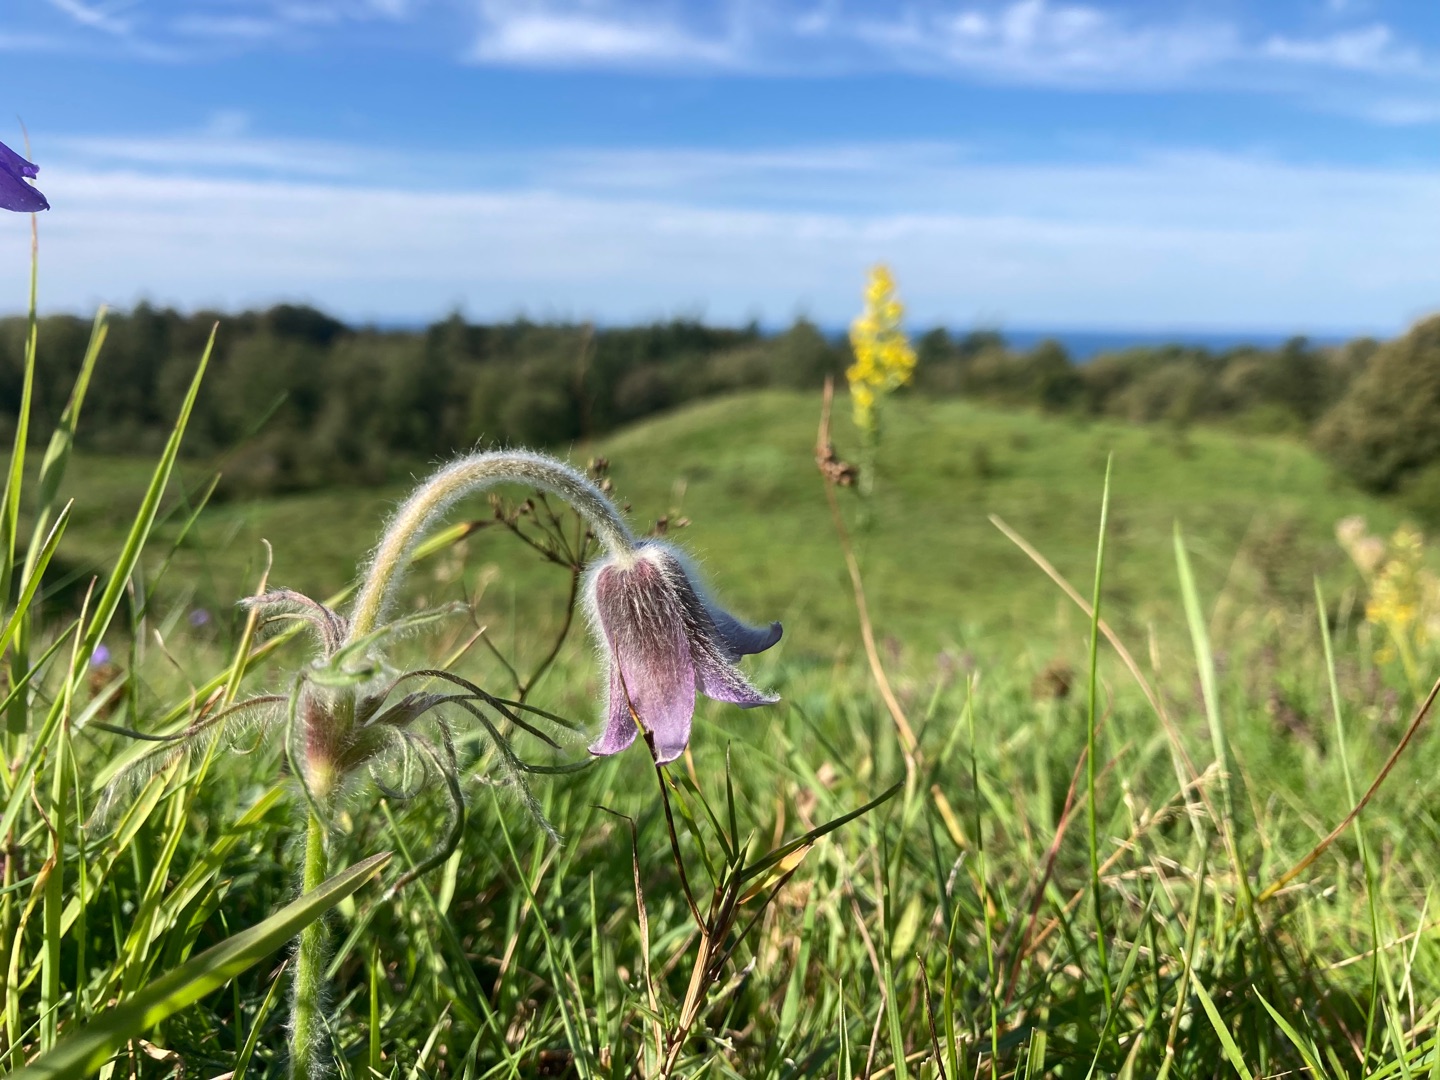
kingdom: Plantae
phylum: Tracheophyta
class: Magnoliopsida
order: Ranunculales
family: Ranunculaceae
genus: Pulsatilla
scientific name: Pulsatilla pratensis
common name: Nikkende kobjælde
